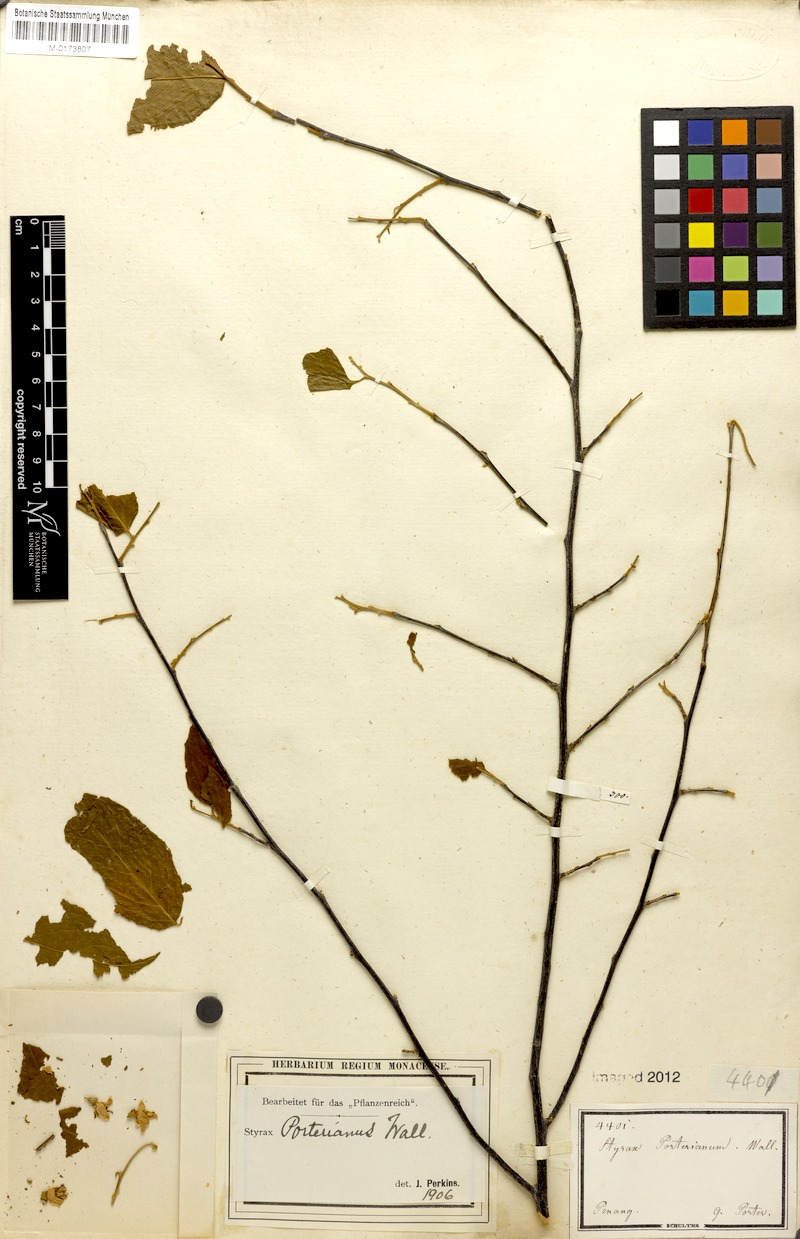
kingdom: Plantae
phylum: Tracheophyta
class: Magnoliopsida
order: Ericales
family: Styracaceae
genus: Styrax
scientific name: Styrax porterianus
